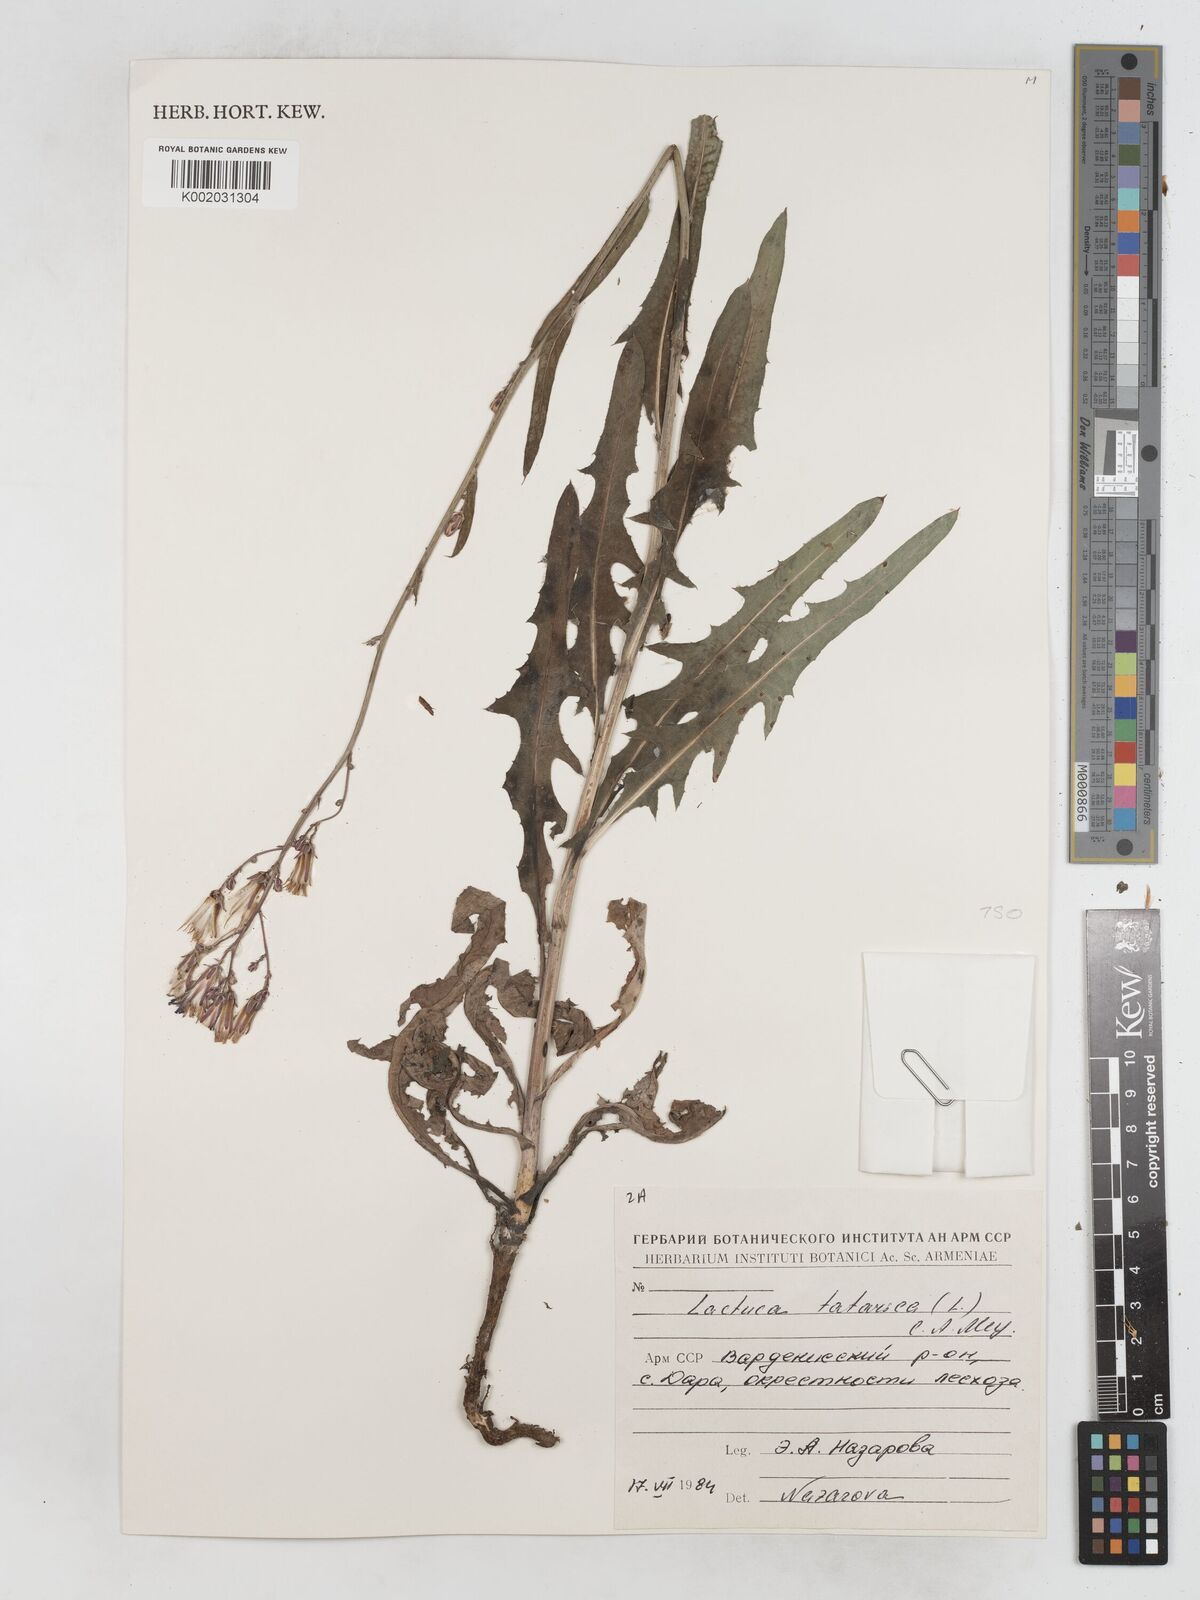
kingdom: Plantae
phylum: Tracheophyta
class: Magnoliopsida
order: Asterales
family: Asteraceae
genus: Lactuca
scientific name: Lactuca tatarica
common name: Blue lettuce
